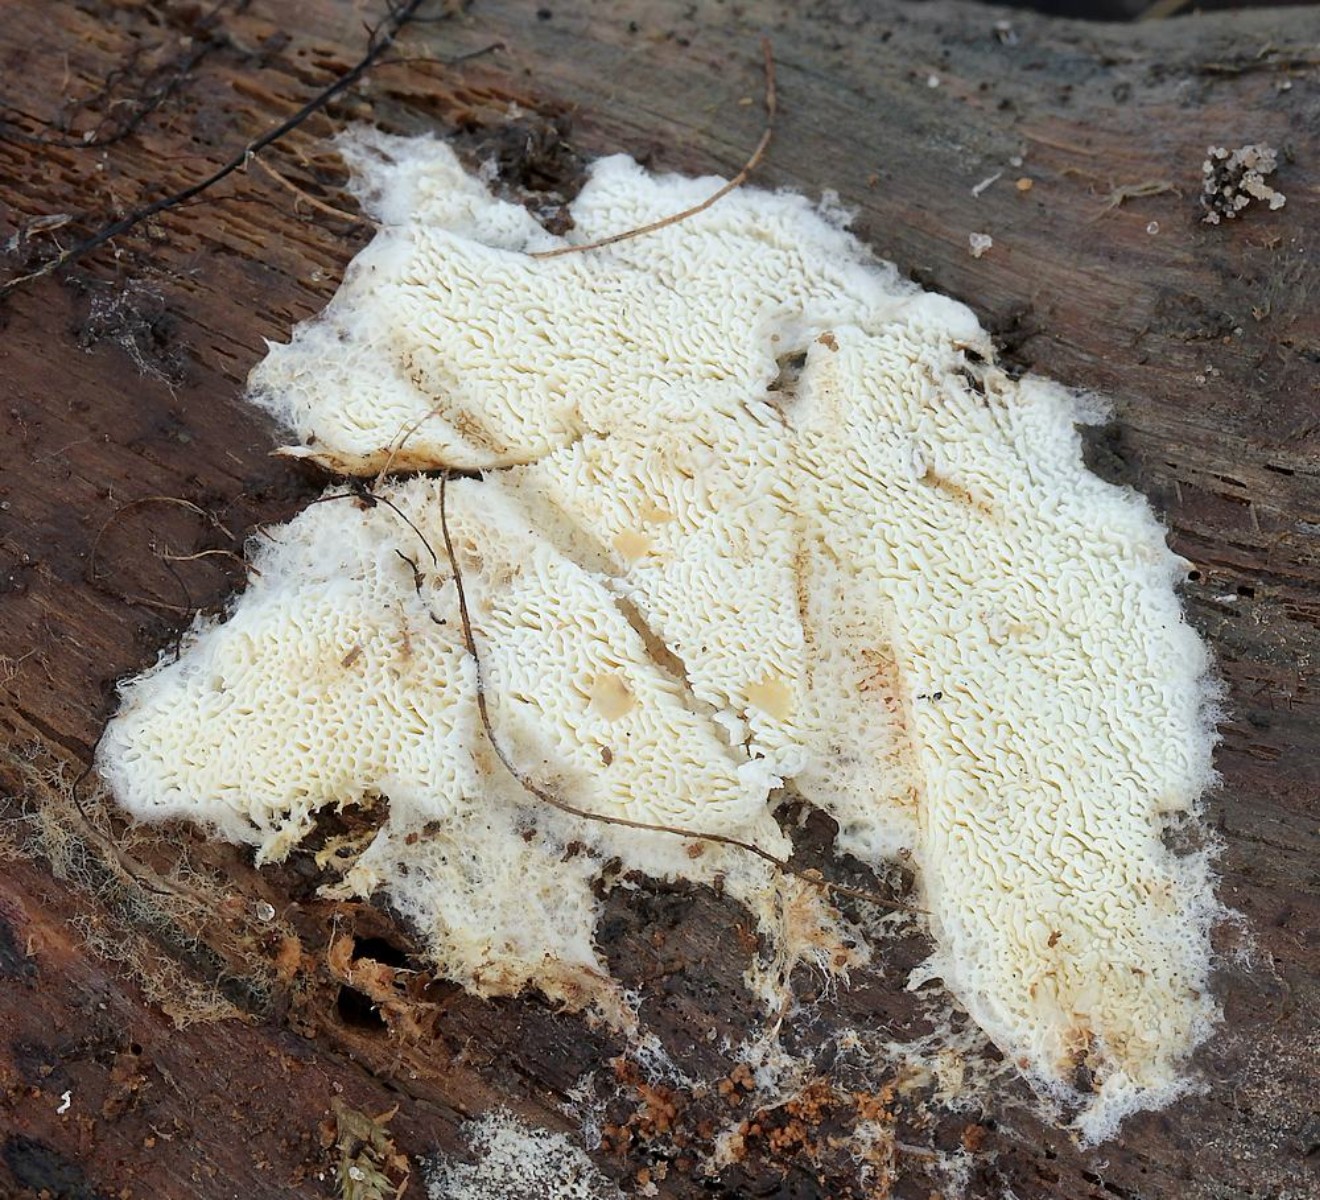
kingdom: Fungi
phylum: Basidiomycota
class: Agaricomycetes
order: Polyporales
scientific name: Polyporales
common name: poresvampordenen
